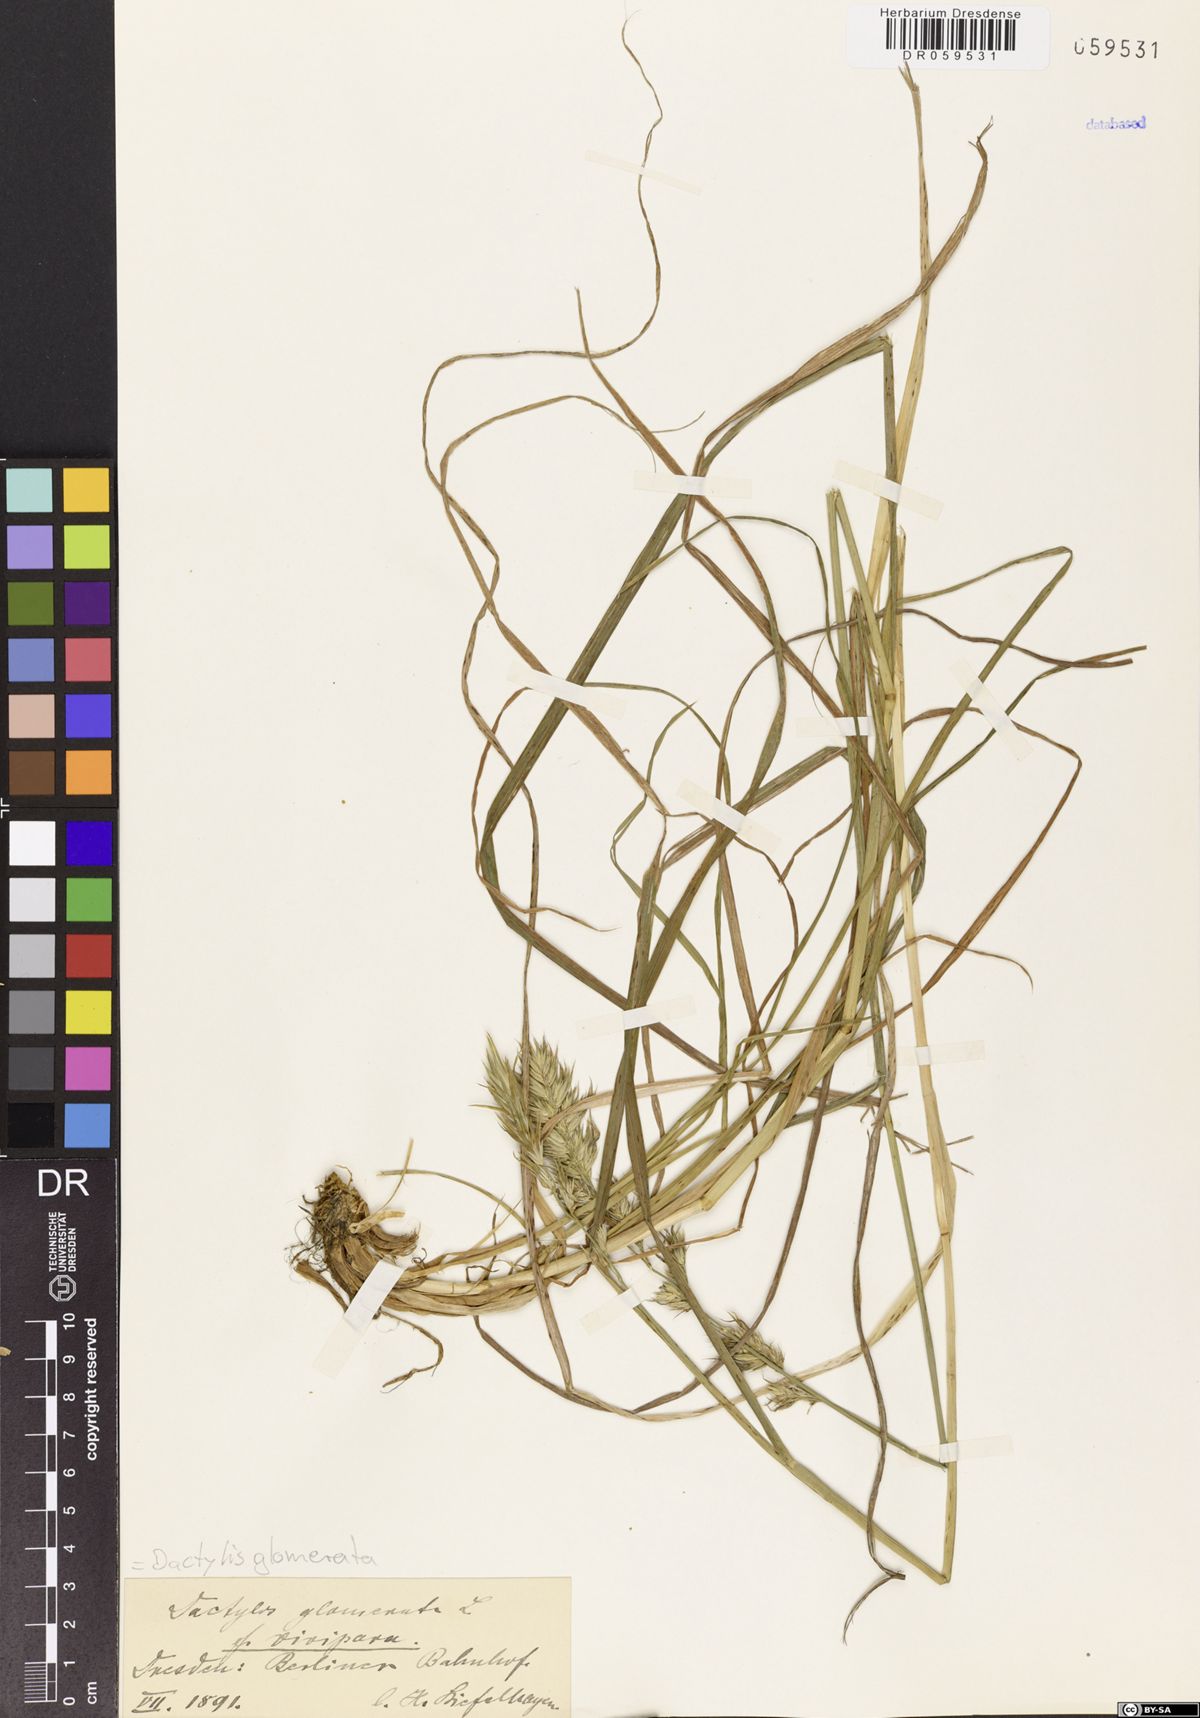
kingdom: Plantae
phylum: Tracheophyta
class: Liliopsida
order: Poales
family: Poaceae
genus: Dactylis
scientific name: Dactylis glomerata
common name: Orchardgrass
